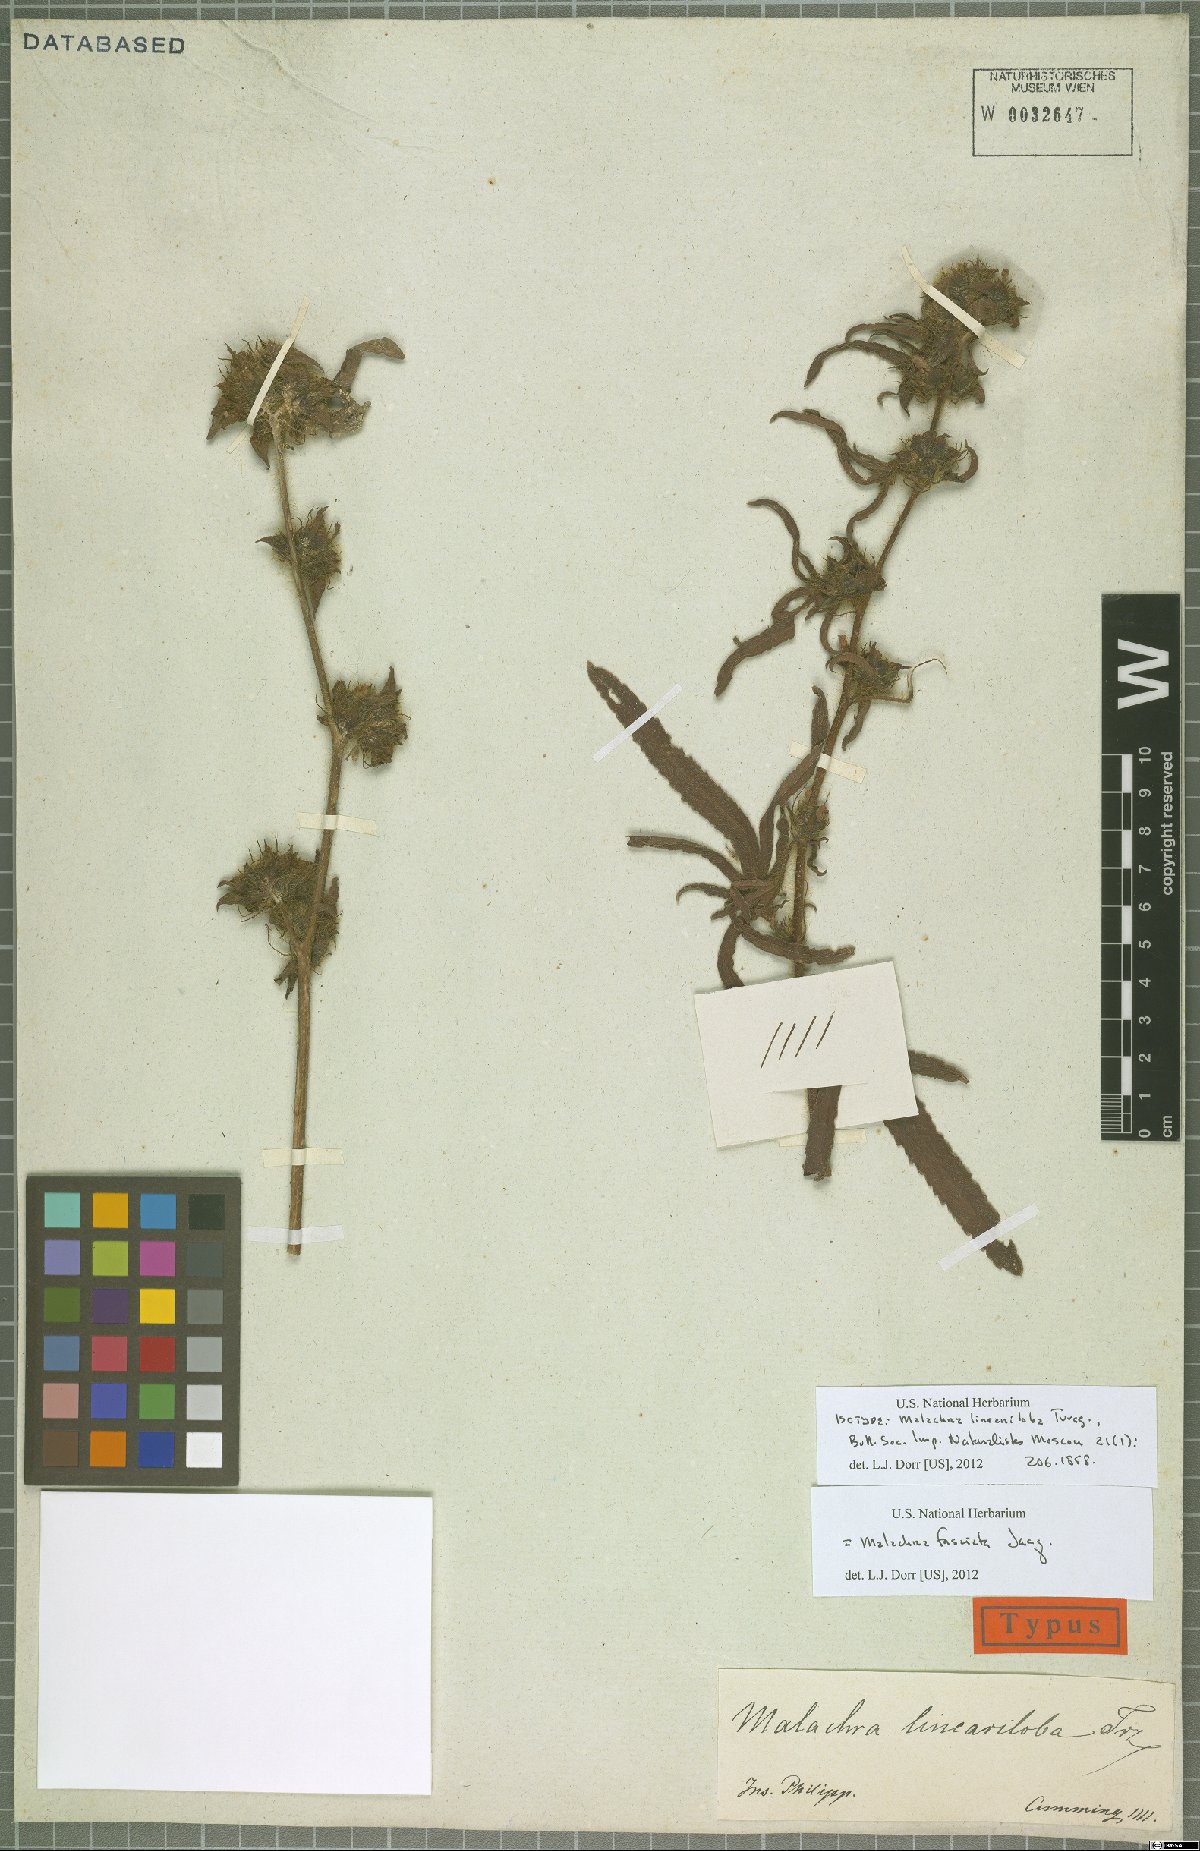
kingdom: Plantae
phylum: Tracheophyta
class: Magnoliopsida
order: Malvales
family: Malvaceae
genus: Malachra
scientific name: Malachra fasciata
